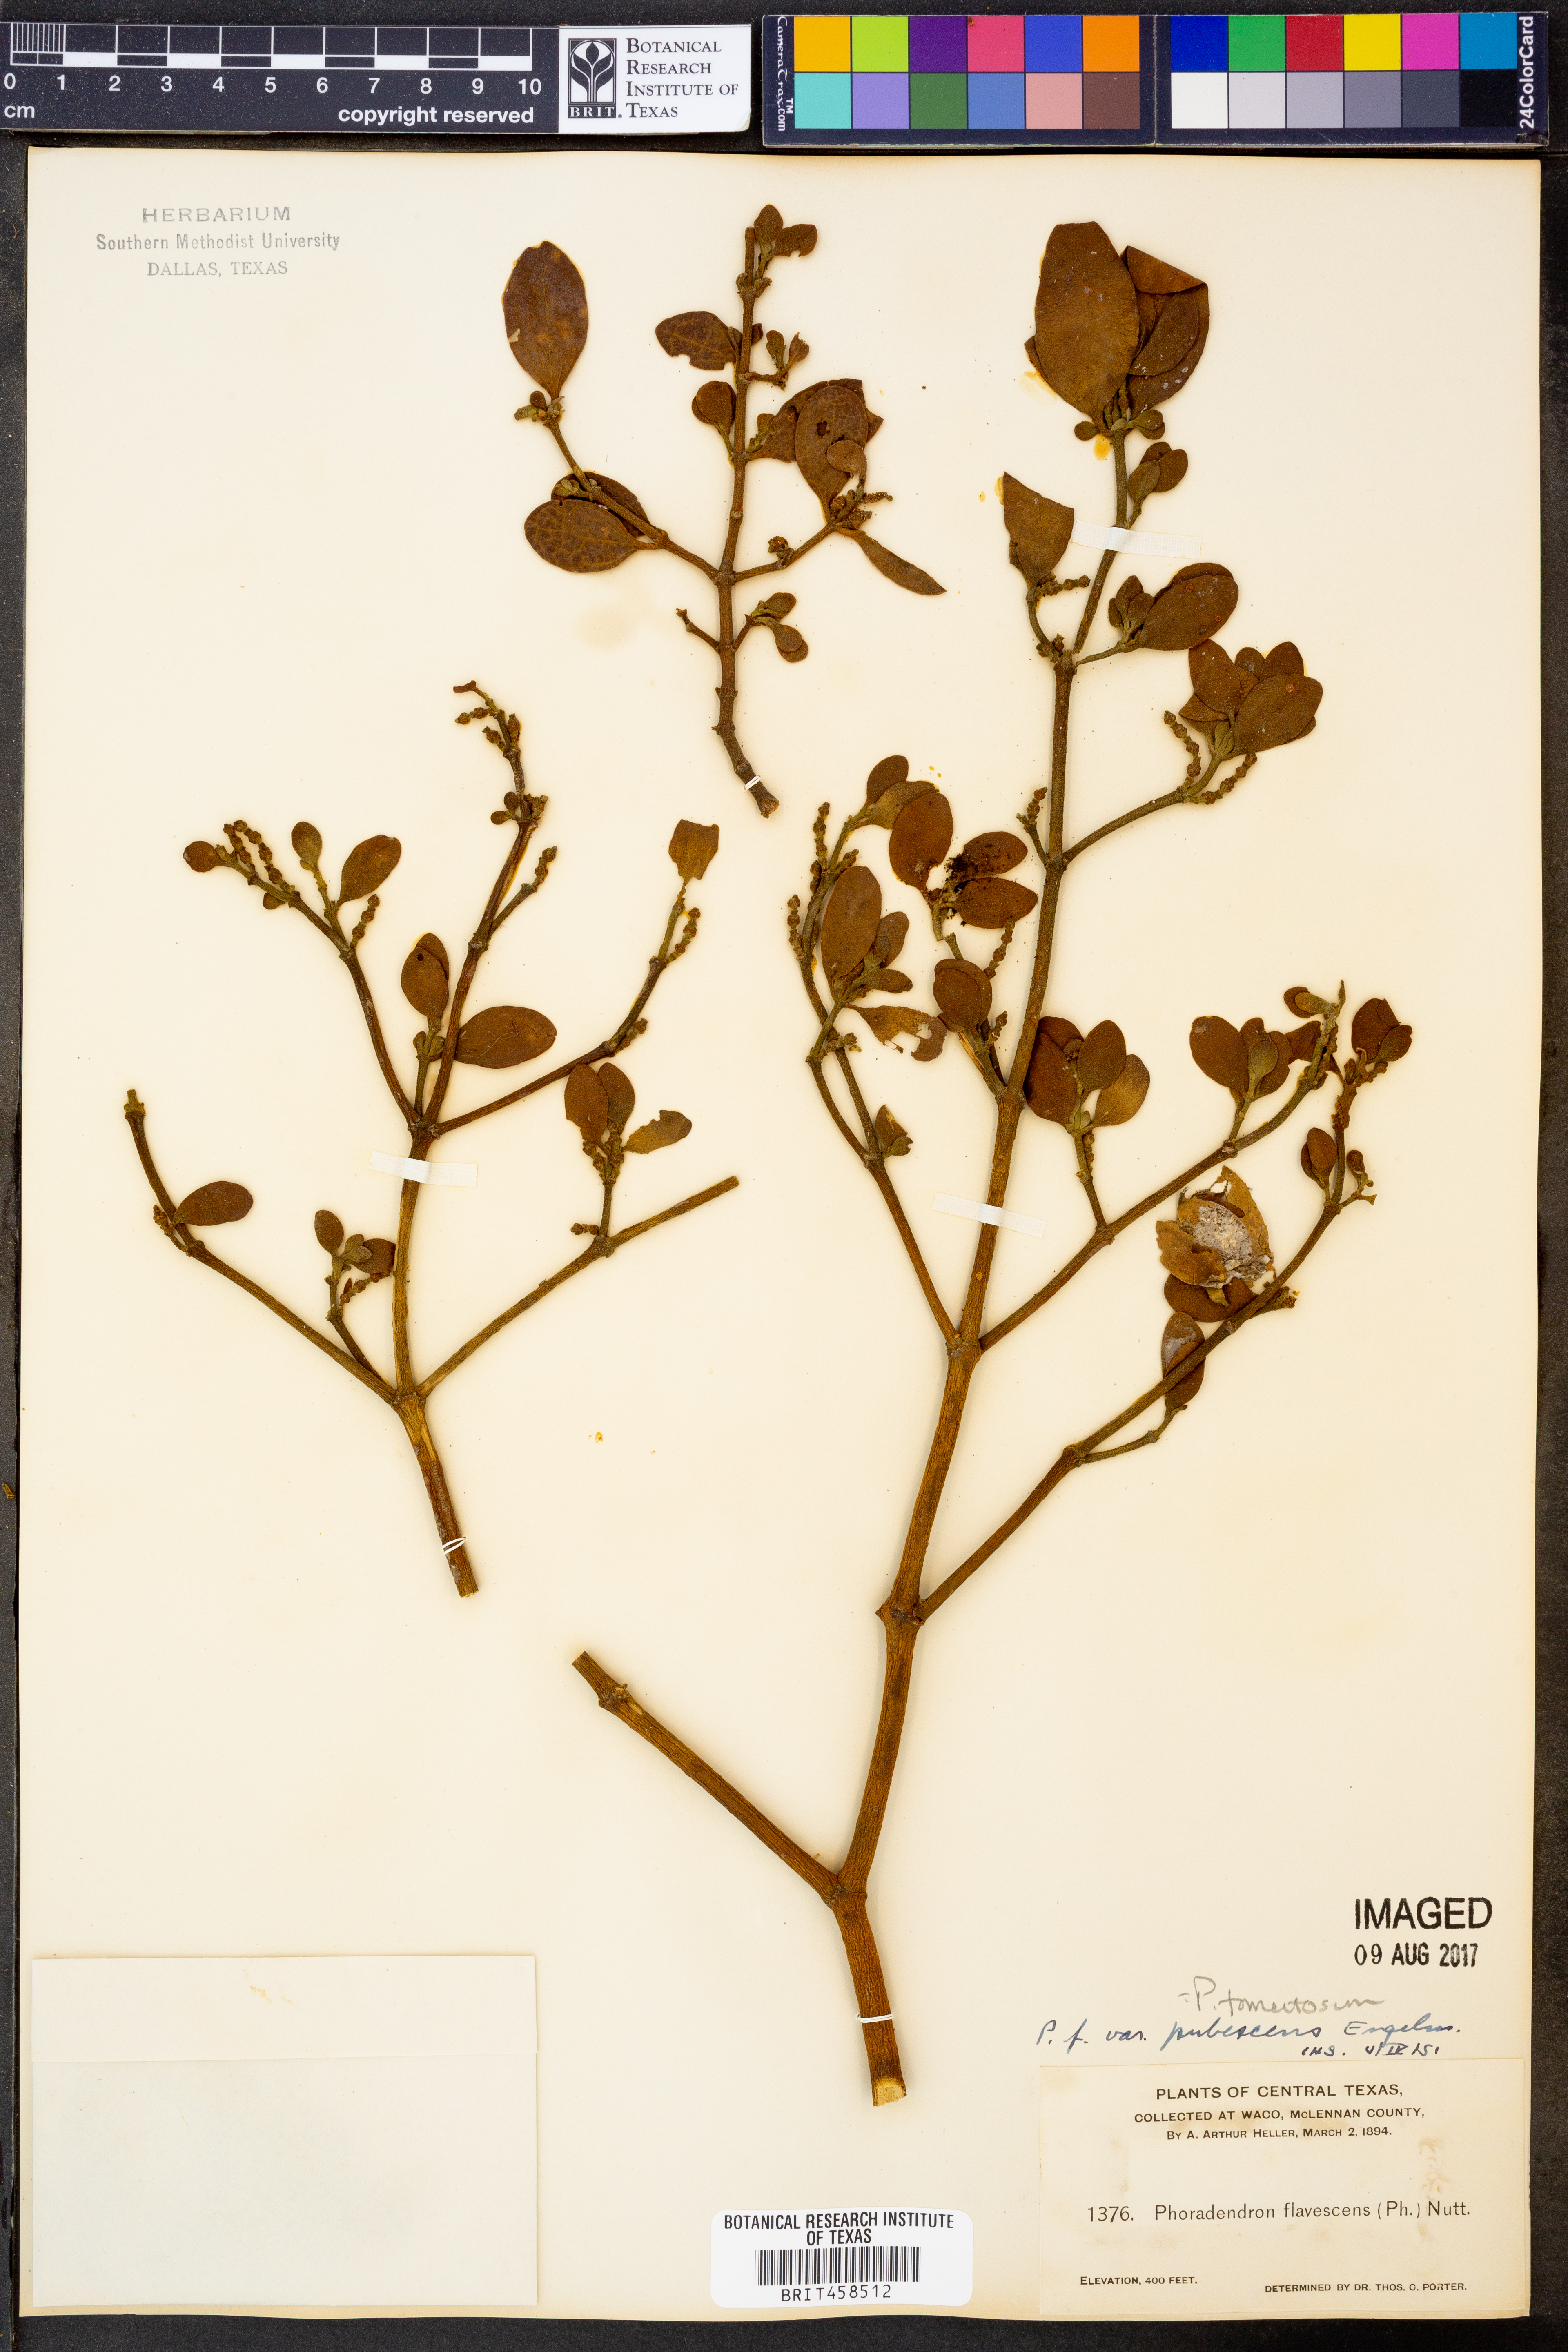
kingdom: Plantae
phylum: Tracheophyta
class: Magnoliopsida
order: Santalales
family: Viscaceae
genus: Phoradendron
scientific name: Phoradendron leucarpum
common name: Pacific mistletoe
